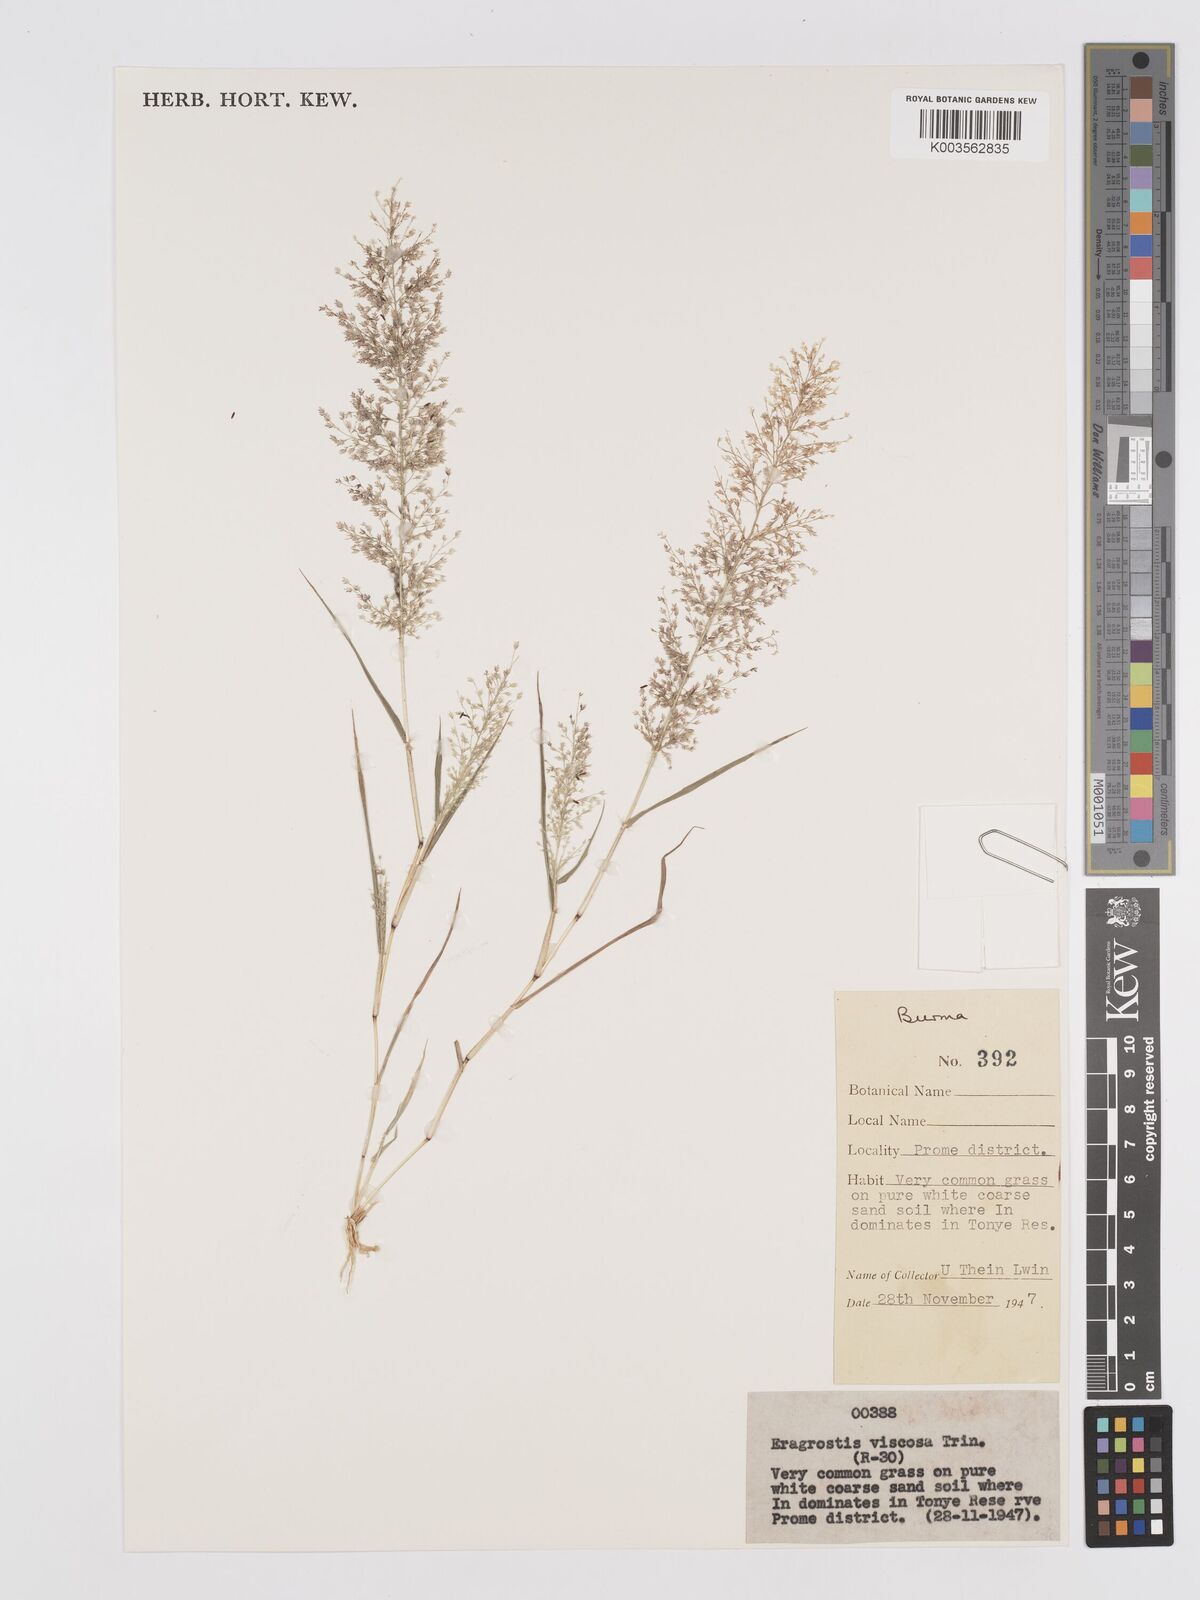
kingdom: Plantae
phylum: Tracheophyta
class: Liliopsida
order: Poales
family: Poaceae
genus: Eragrostis
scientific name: Eragrostis viscosa
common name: Sticky love grass
